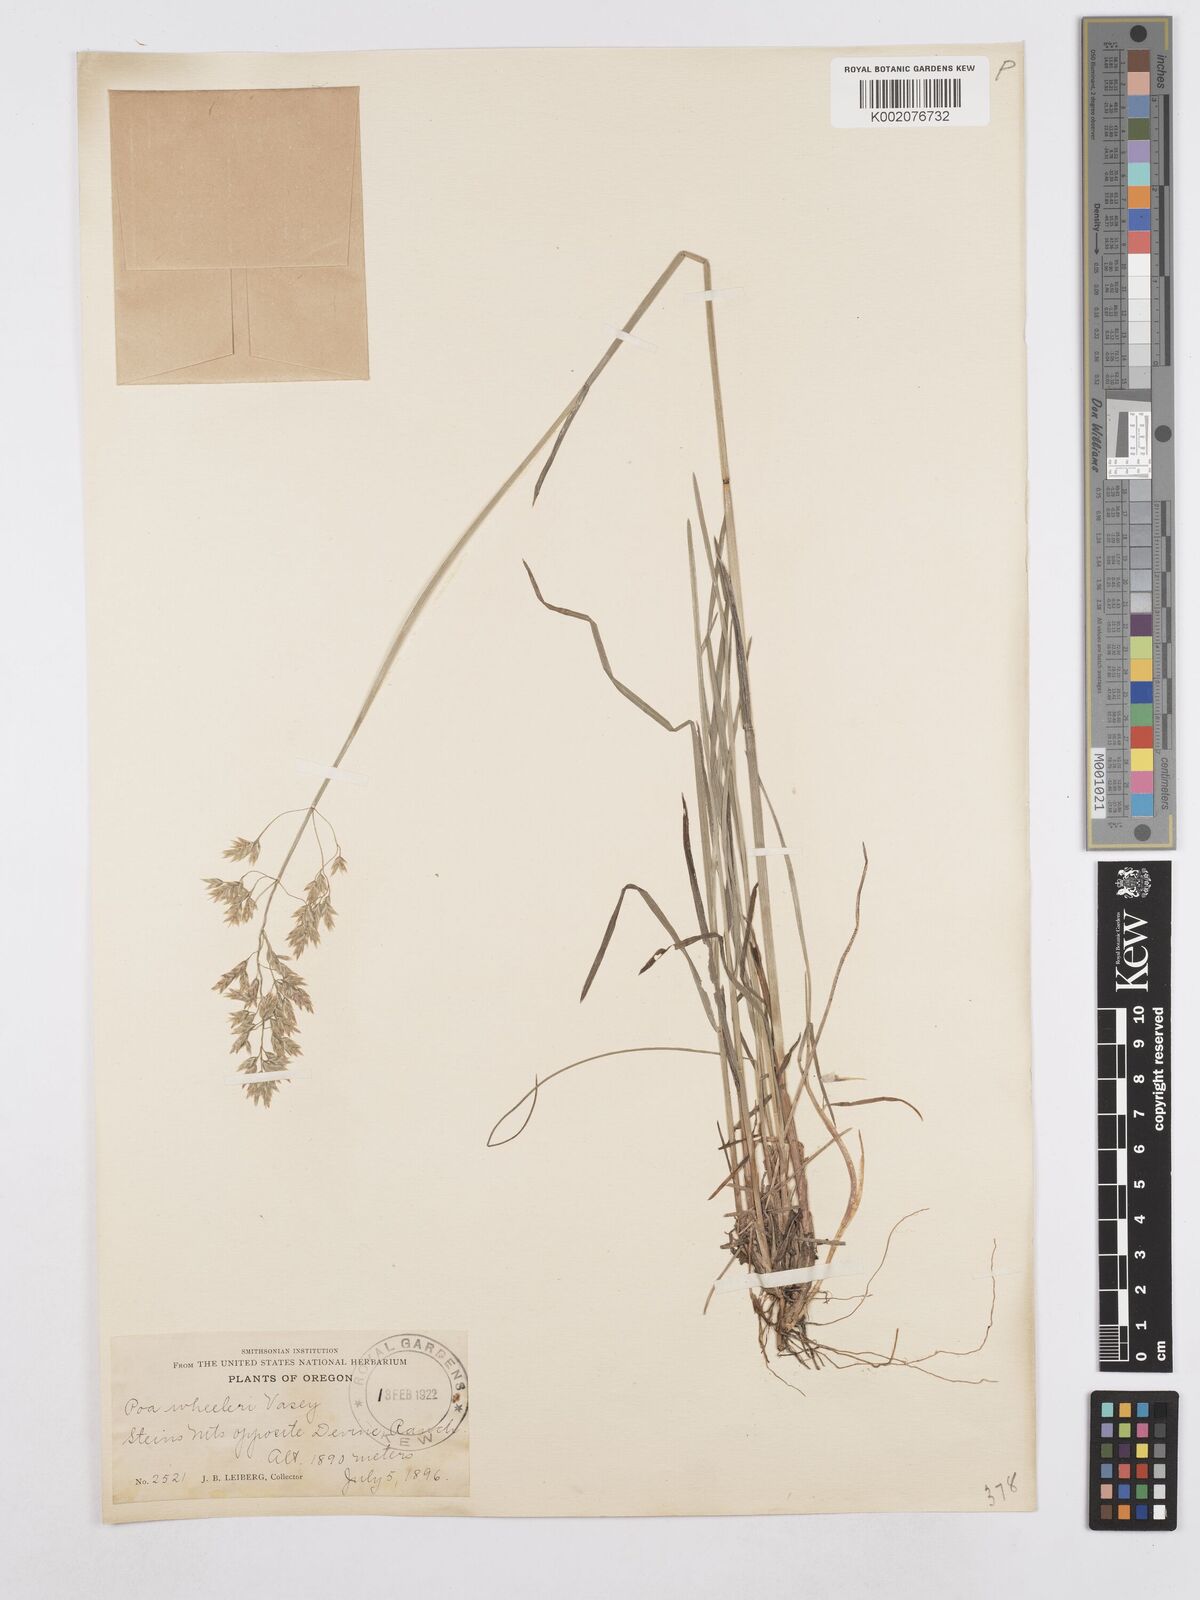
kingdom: Plantae
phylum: Tracheophyta
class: Liliopsida
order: Poales
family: Poaceae
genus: Poa
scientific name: Poa wheeleri
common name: Wheeler's bluegrass
